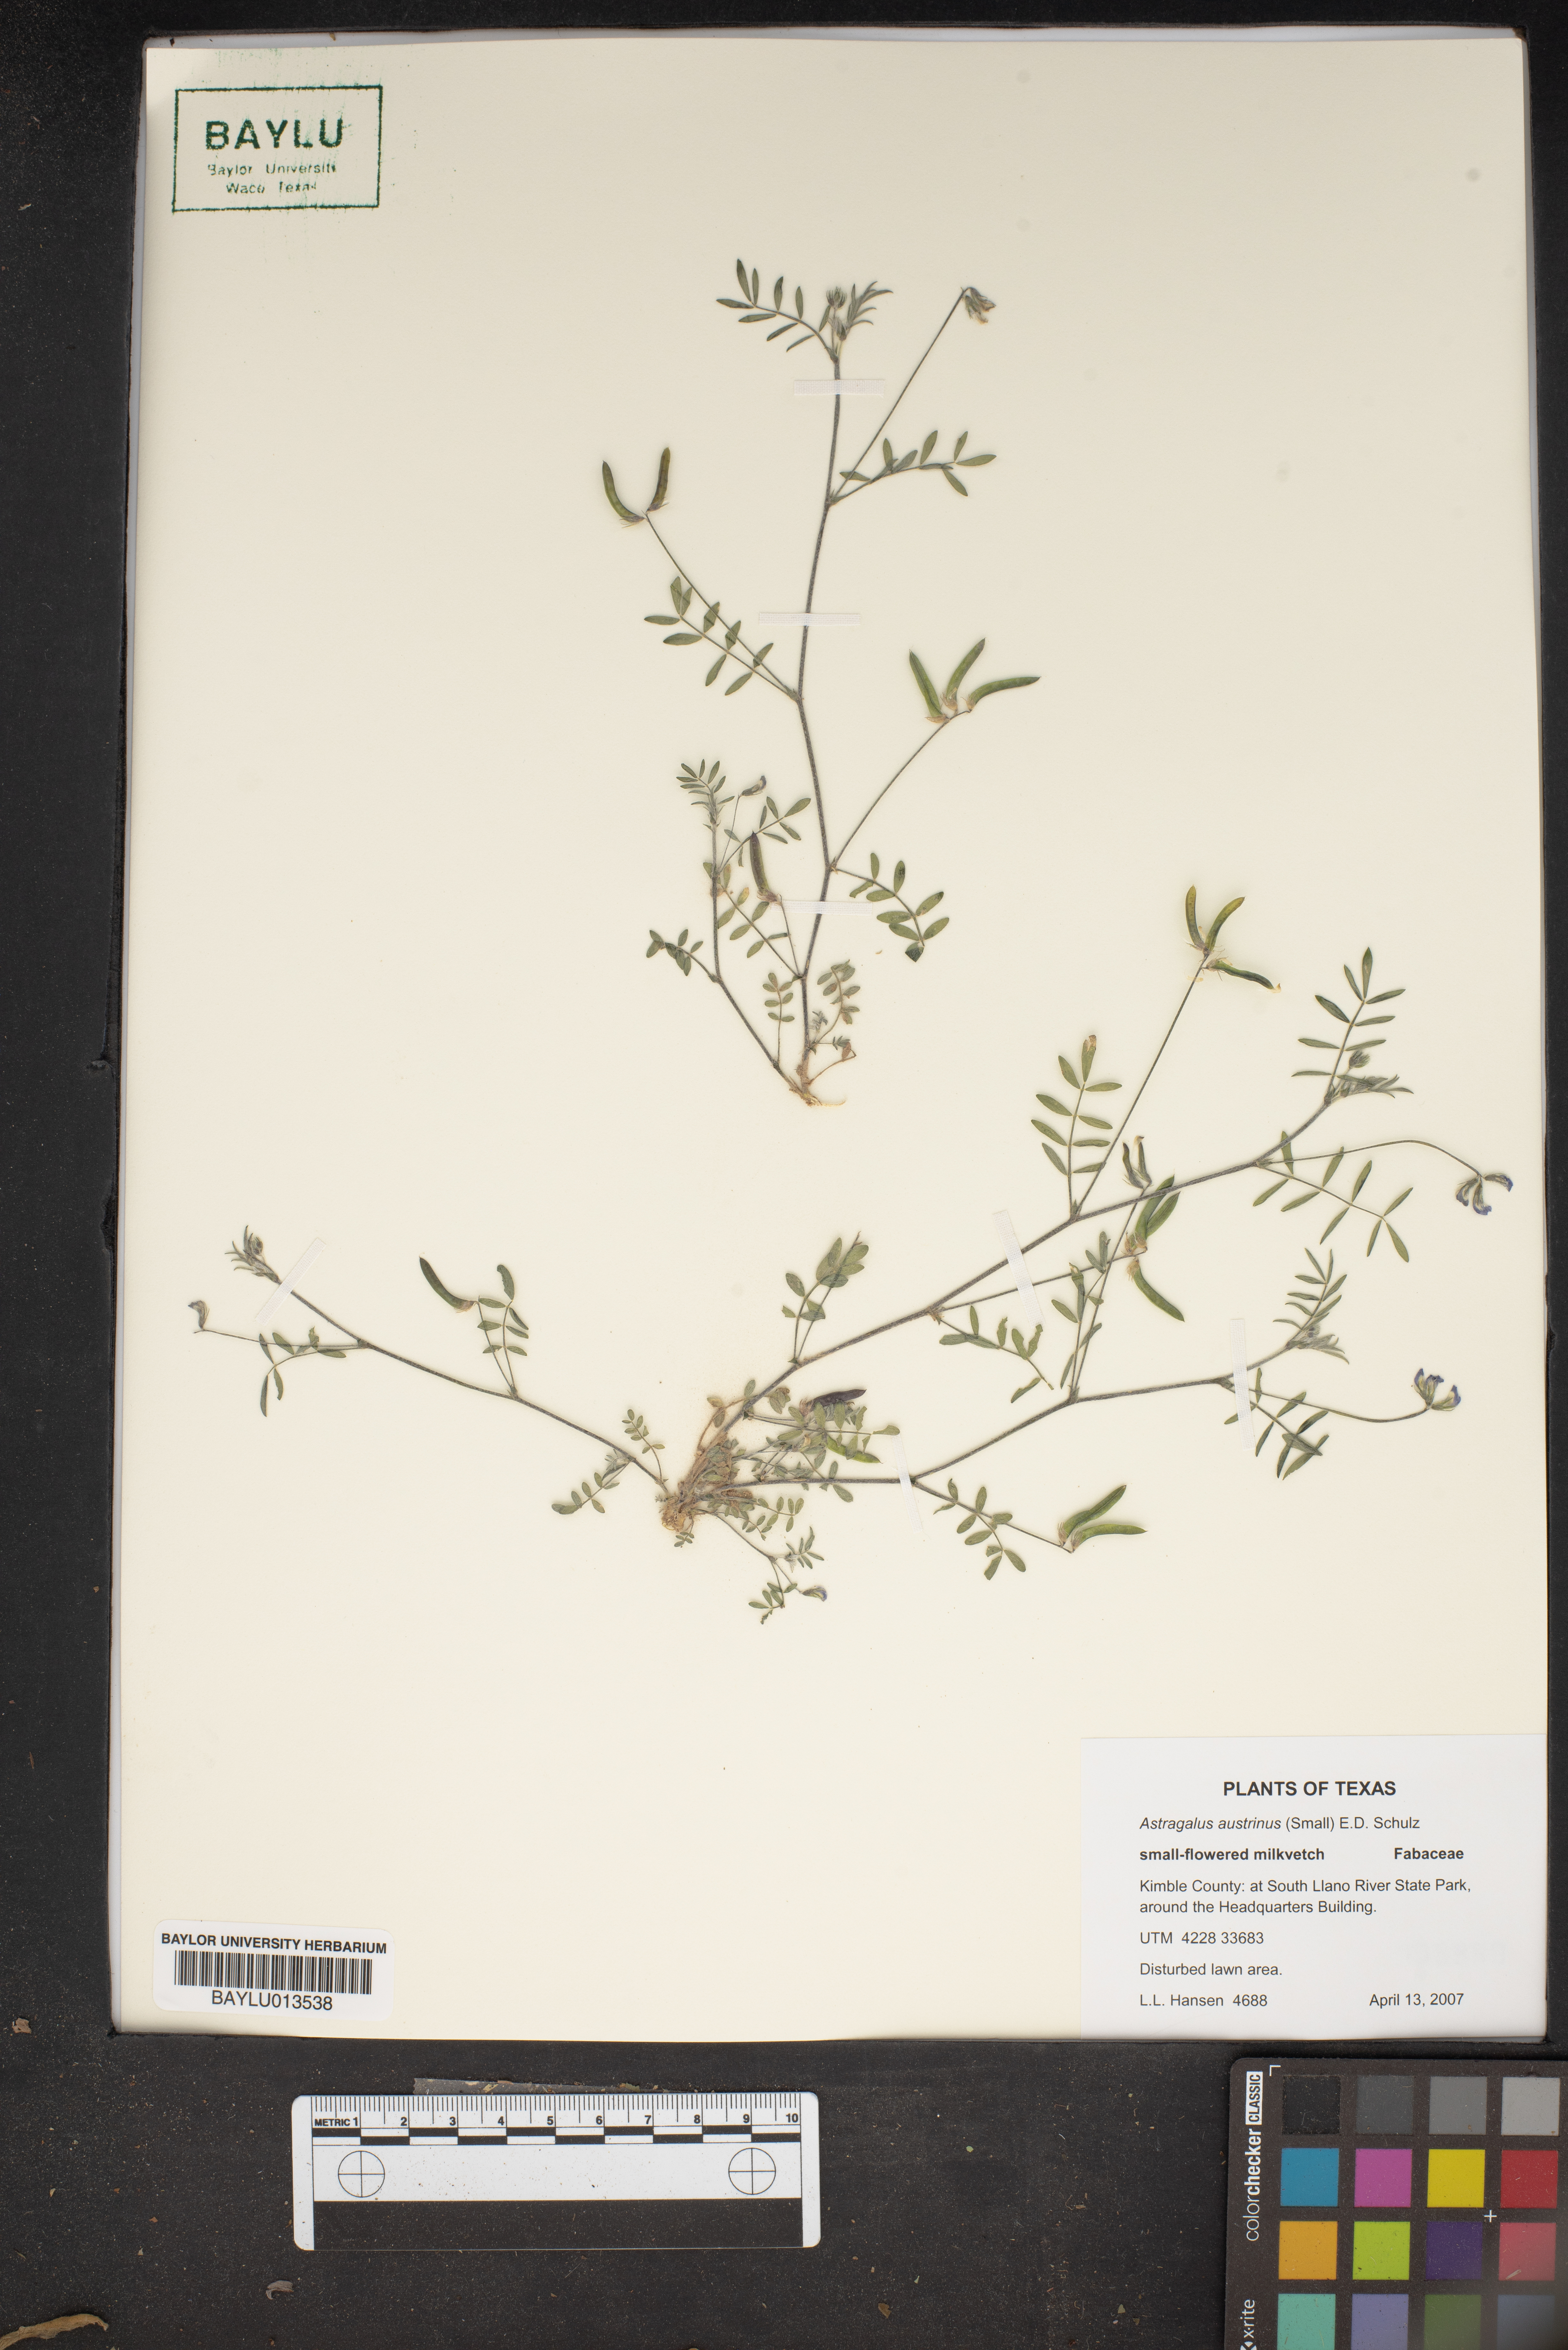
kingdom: Plantae
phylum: Tracheophyta
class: Magnoliopsida
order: Fabales
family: Fabaceae
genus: Astragalus
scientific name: Astragalus nuttallianus
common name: Smallflowered milkvetch
